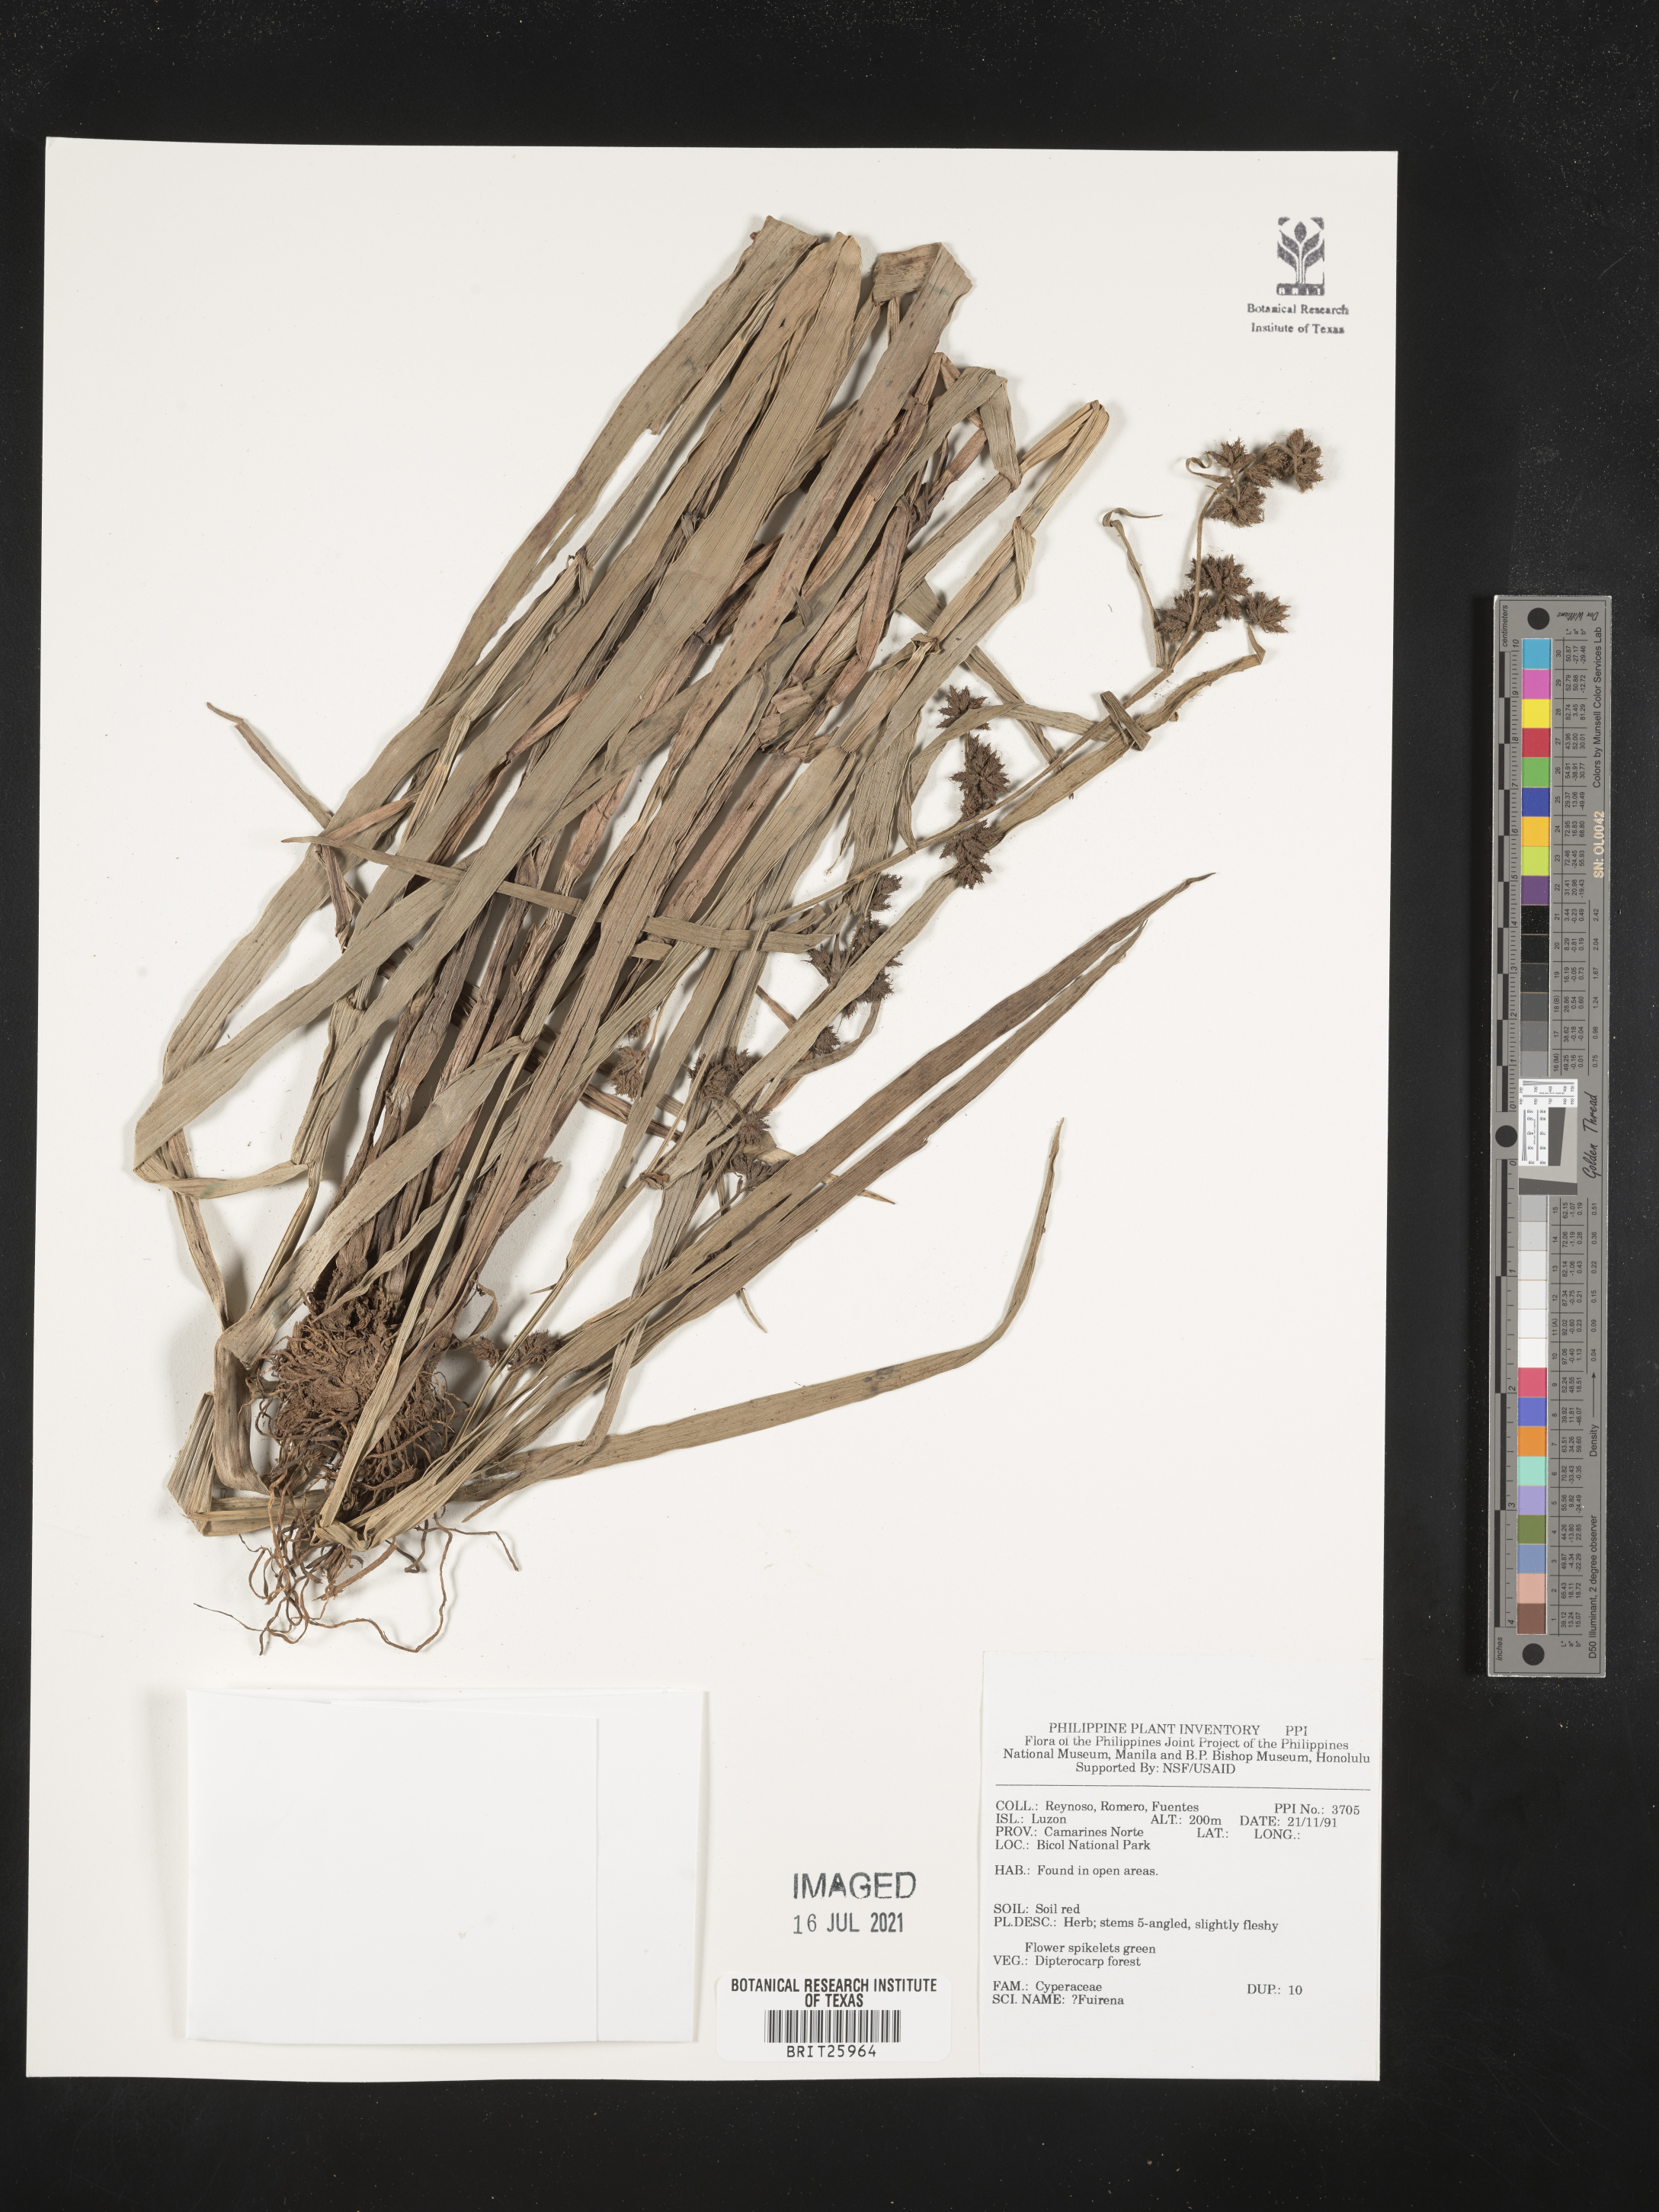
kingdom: Plantae
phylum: Tracheophyta
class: Liliopsida
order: Poales
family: Cyperaceae
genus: Fuirena
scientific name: Fuirena
